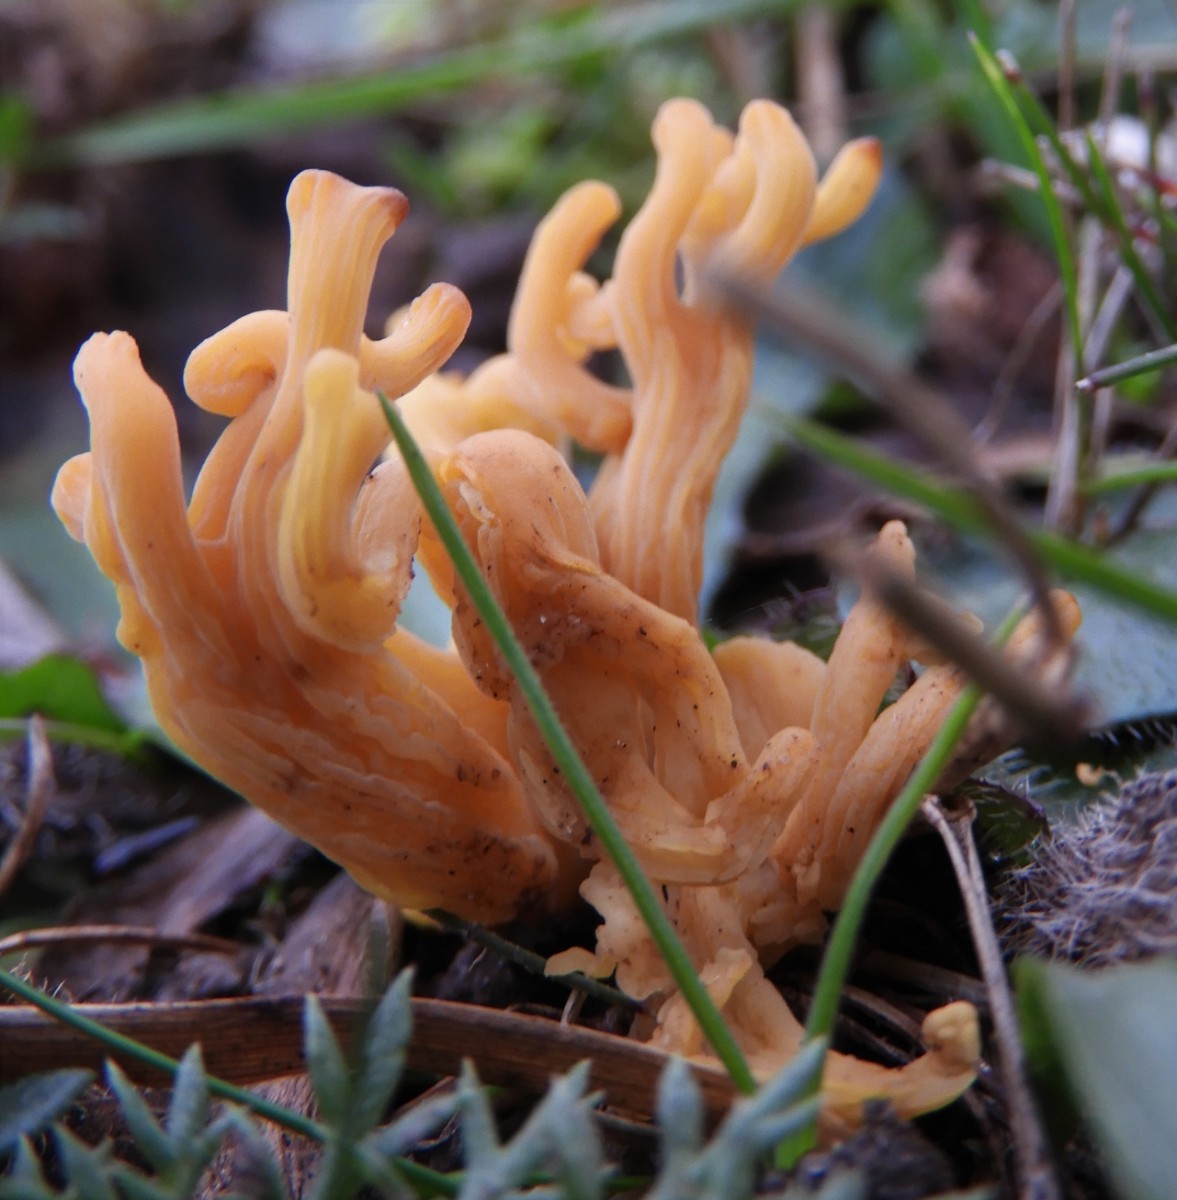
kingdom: Fungi
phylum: Basidiomycota
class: Agaricomycetes
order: Agaricales
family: Clavariaceae
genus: Clavulinopsis
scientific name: Clavulinopsis
